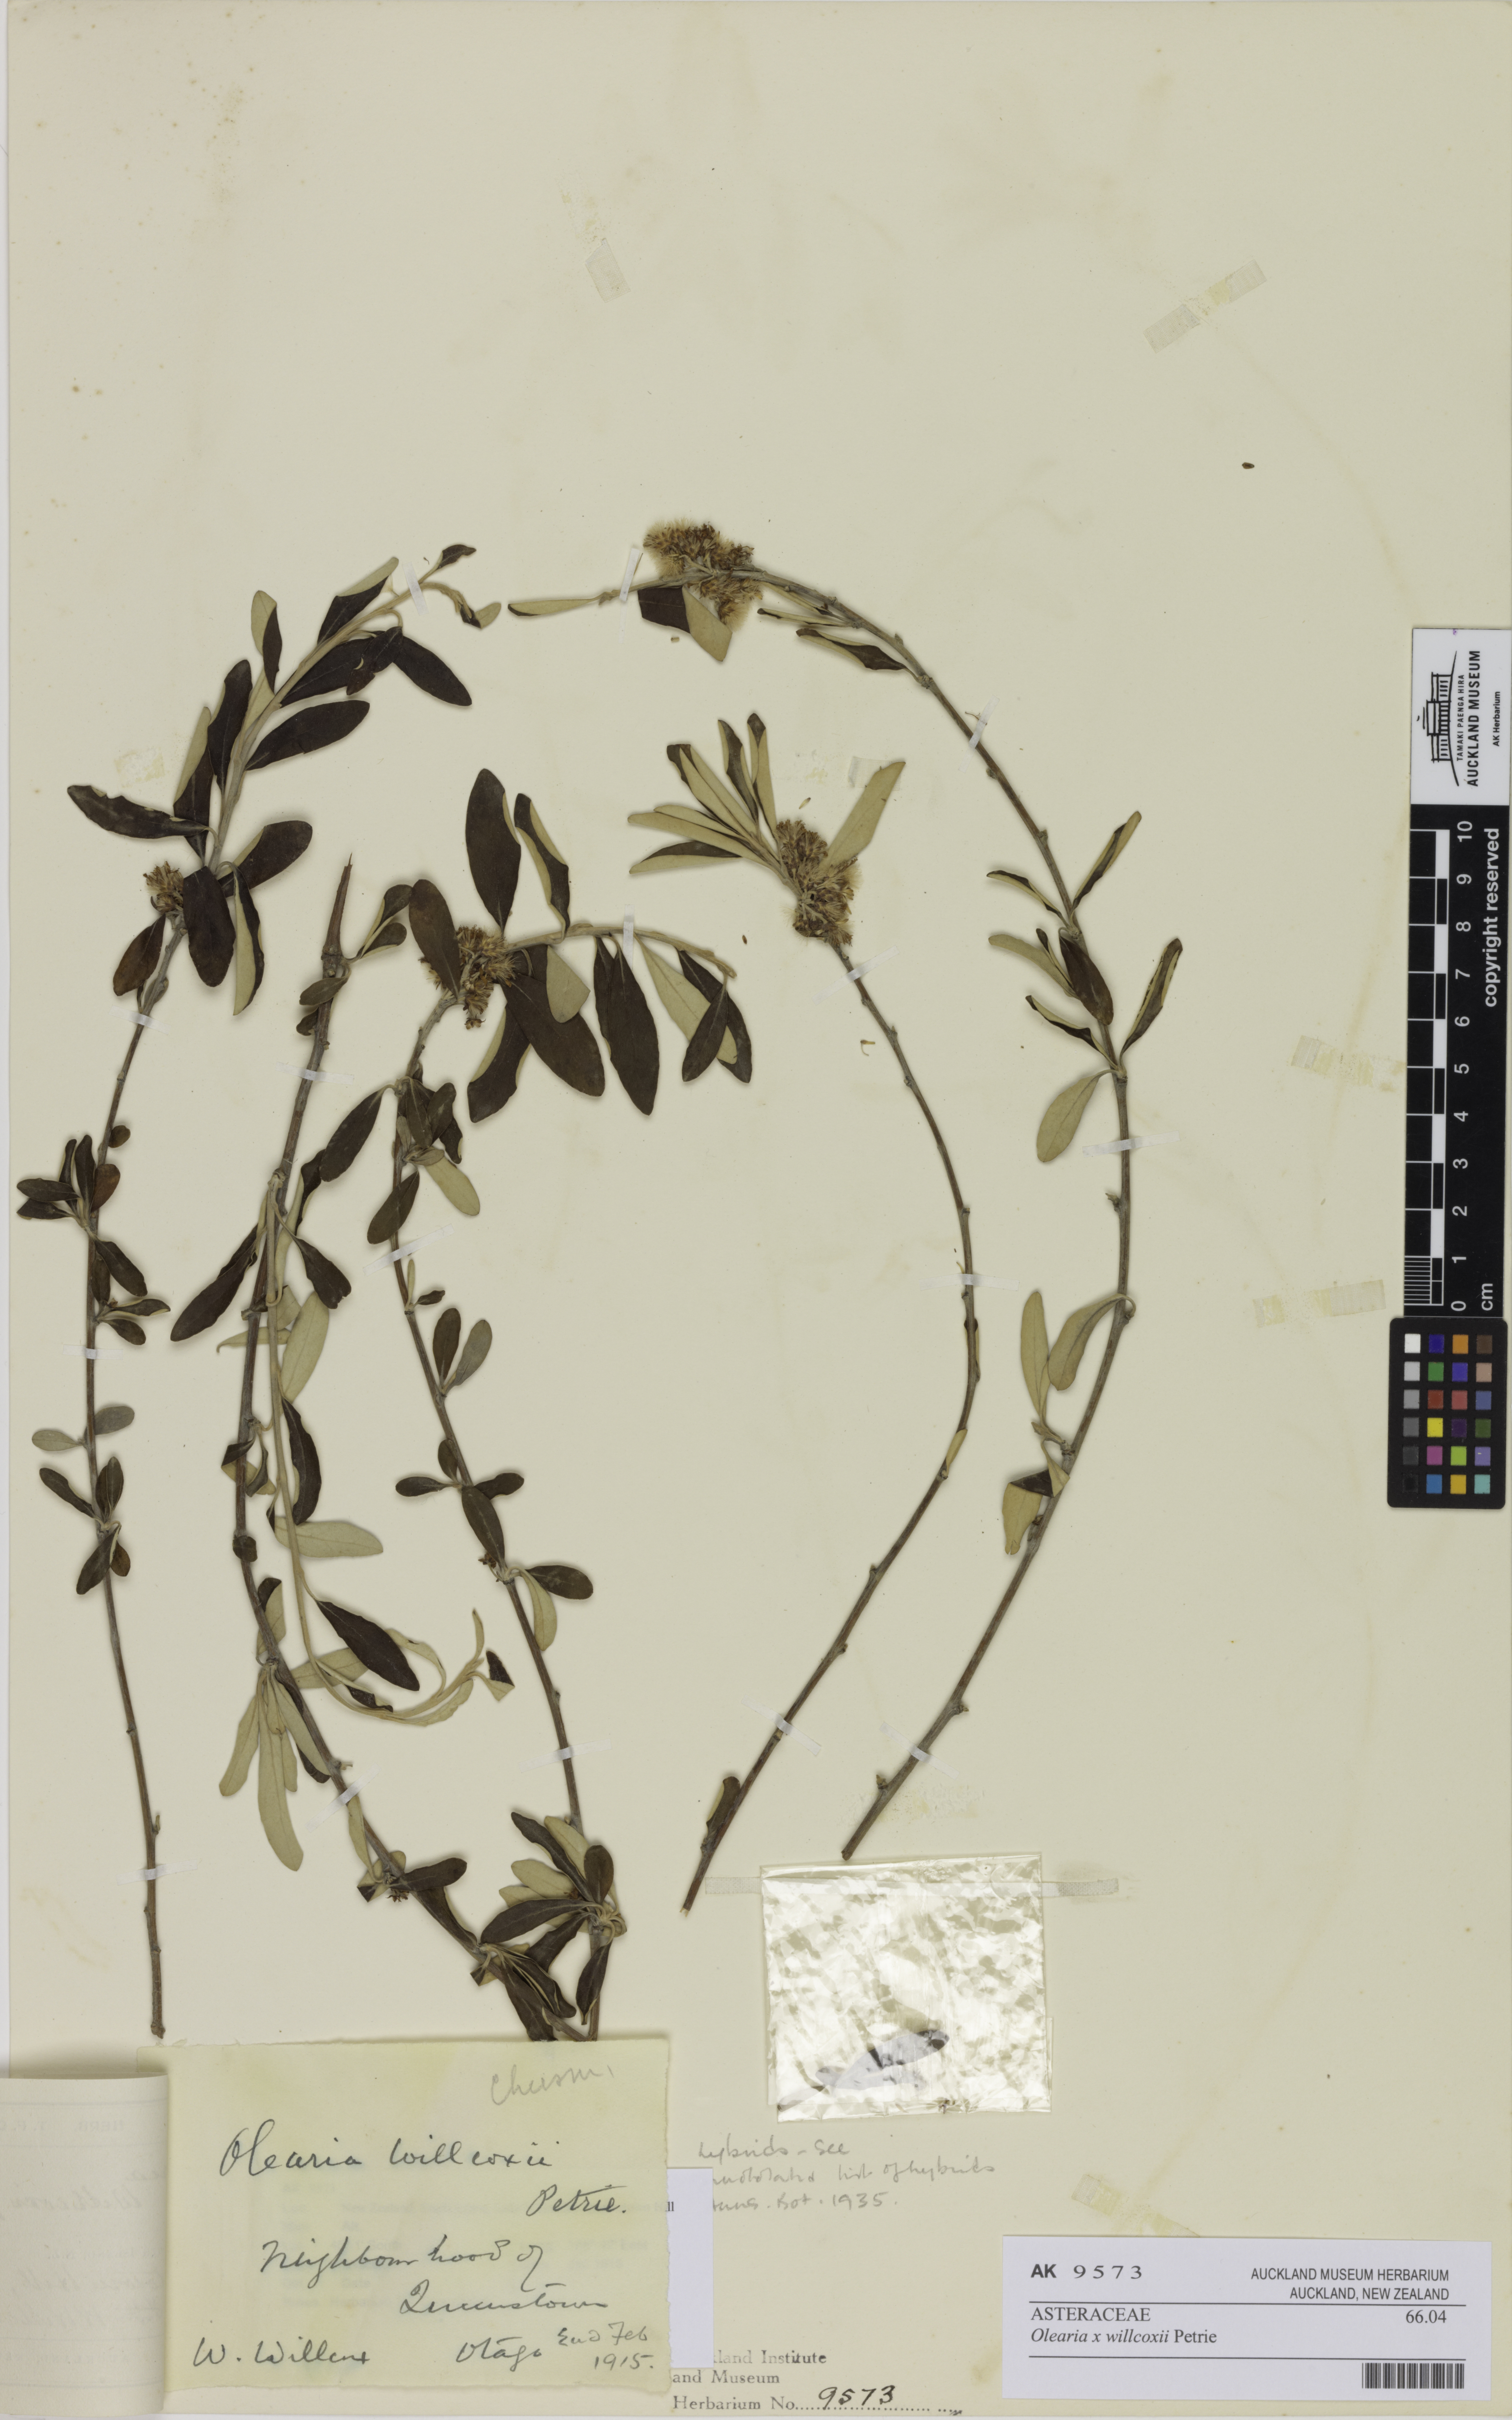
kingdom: Plantae
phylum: Tracheophyta
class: Magnoliopsida
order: Asterales
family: Asteraceae
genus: Olearia
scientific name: Olearia oleifolia
